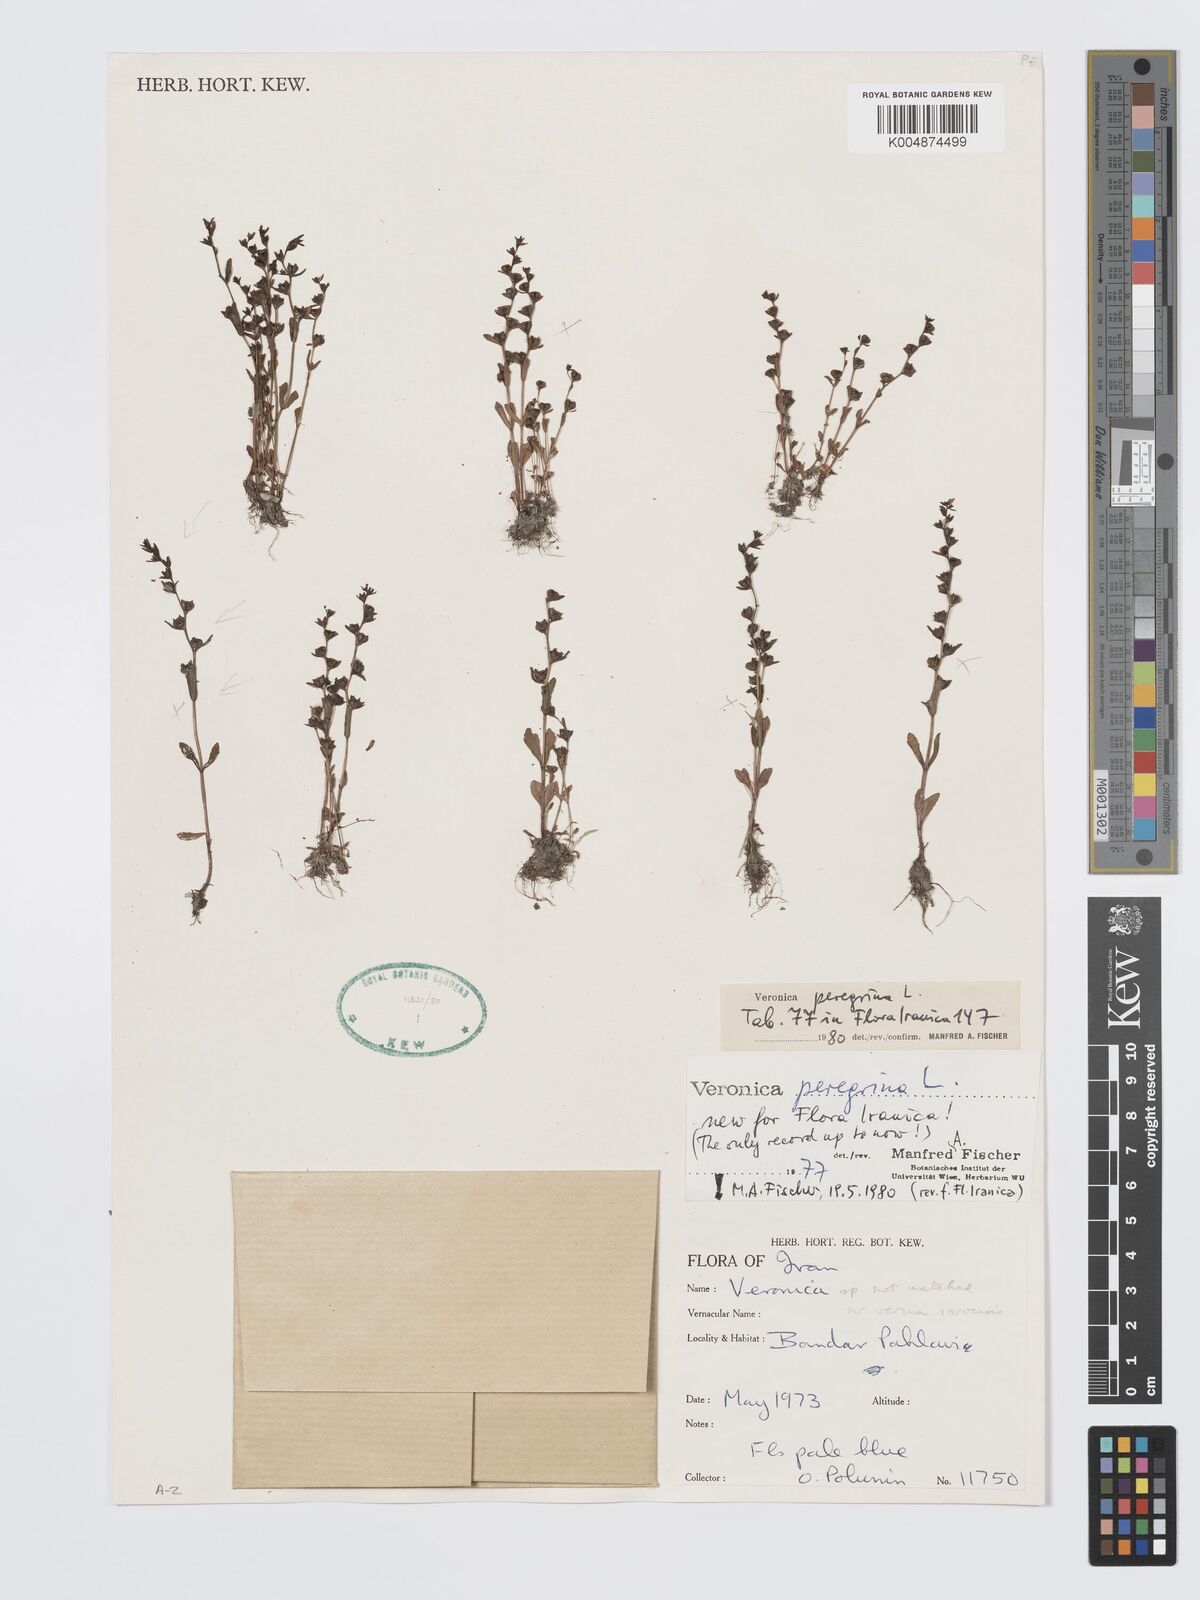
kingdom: Plantae
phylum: Tracheophyta
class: Magnoliopsida
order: Lamiales
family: Plantaginaceae
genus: Veronica
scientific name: Veronica peregrina
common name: Neckweed
